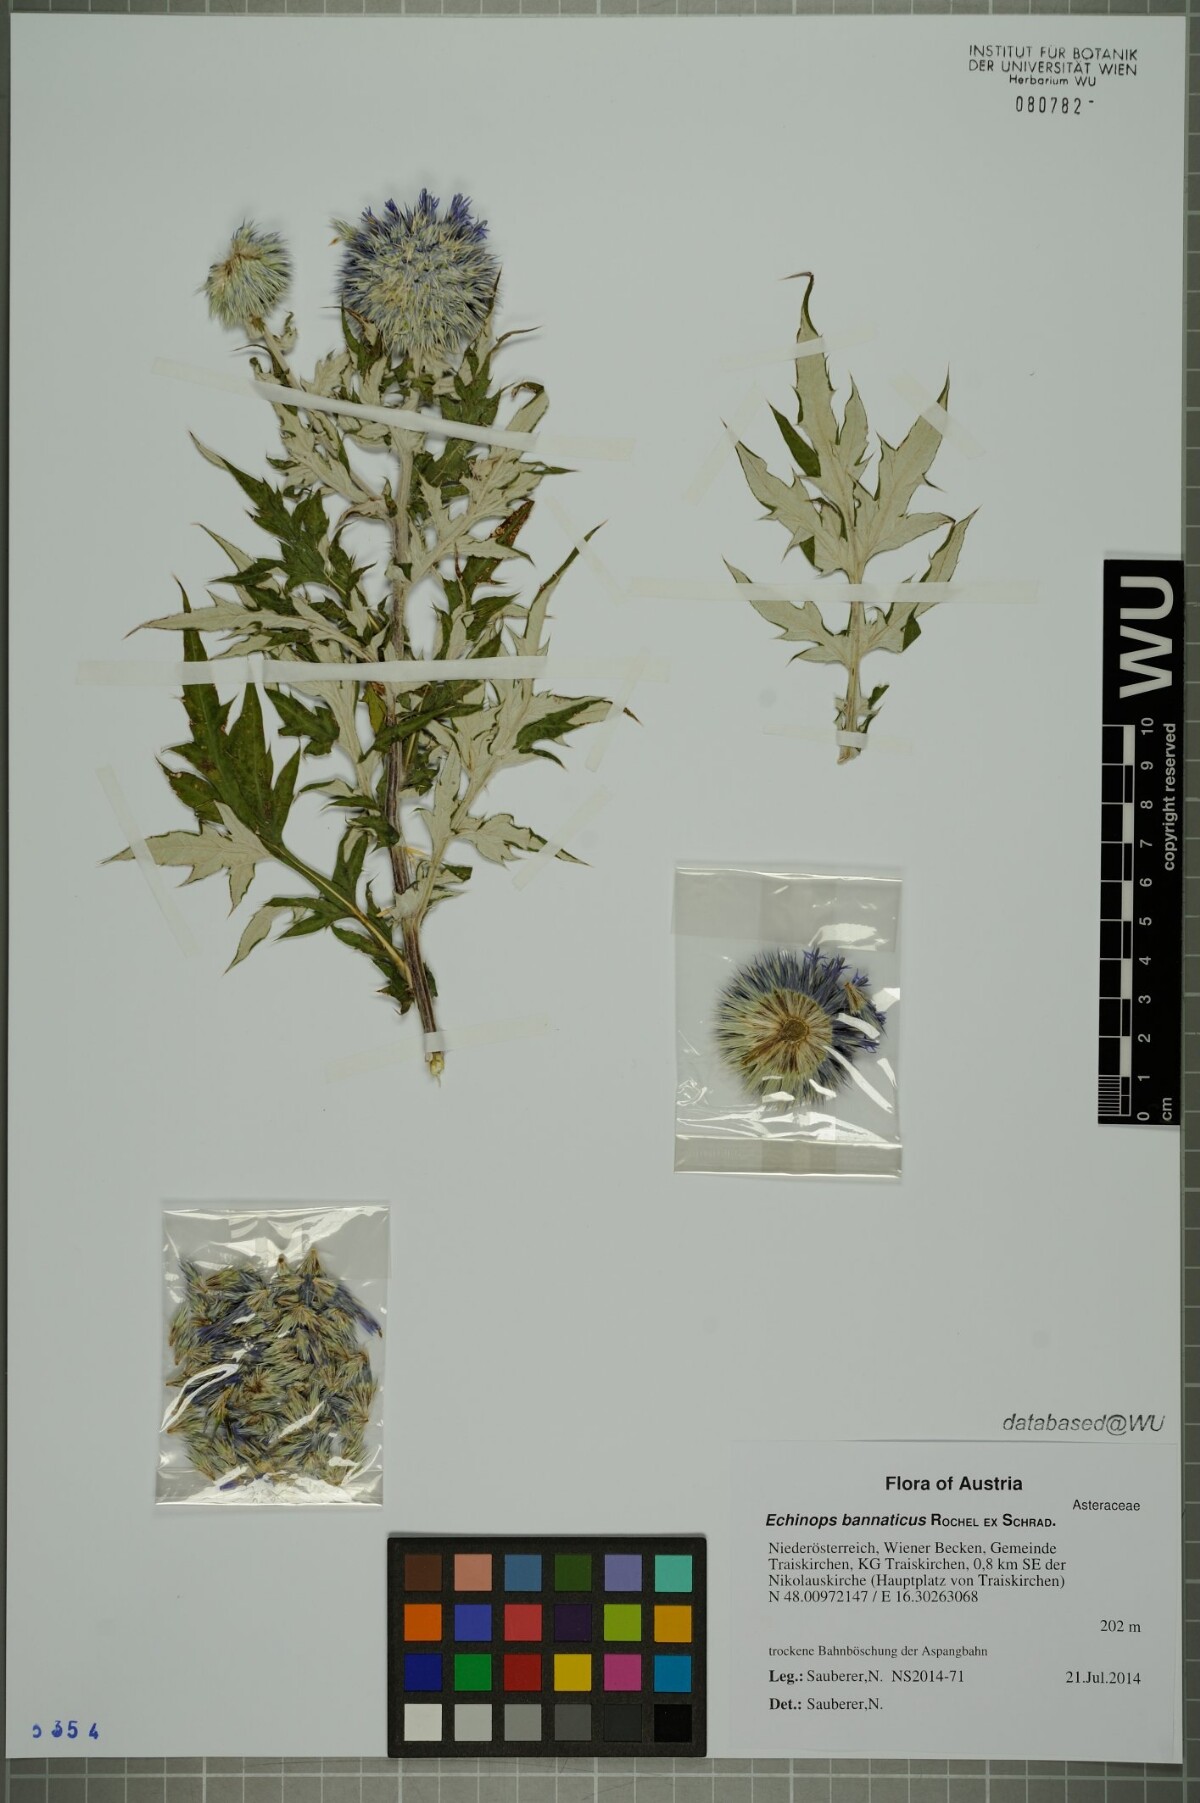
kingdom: Plantae
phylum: Tracheophyta
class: Magnoliopsida
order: Asterales
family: Asteraceae
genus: Echinops
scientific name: Echinops bannaticus
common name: Blue globe-thistle
